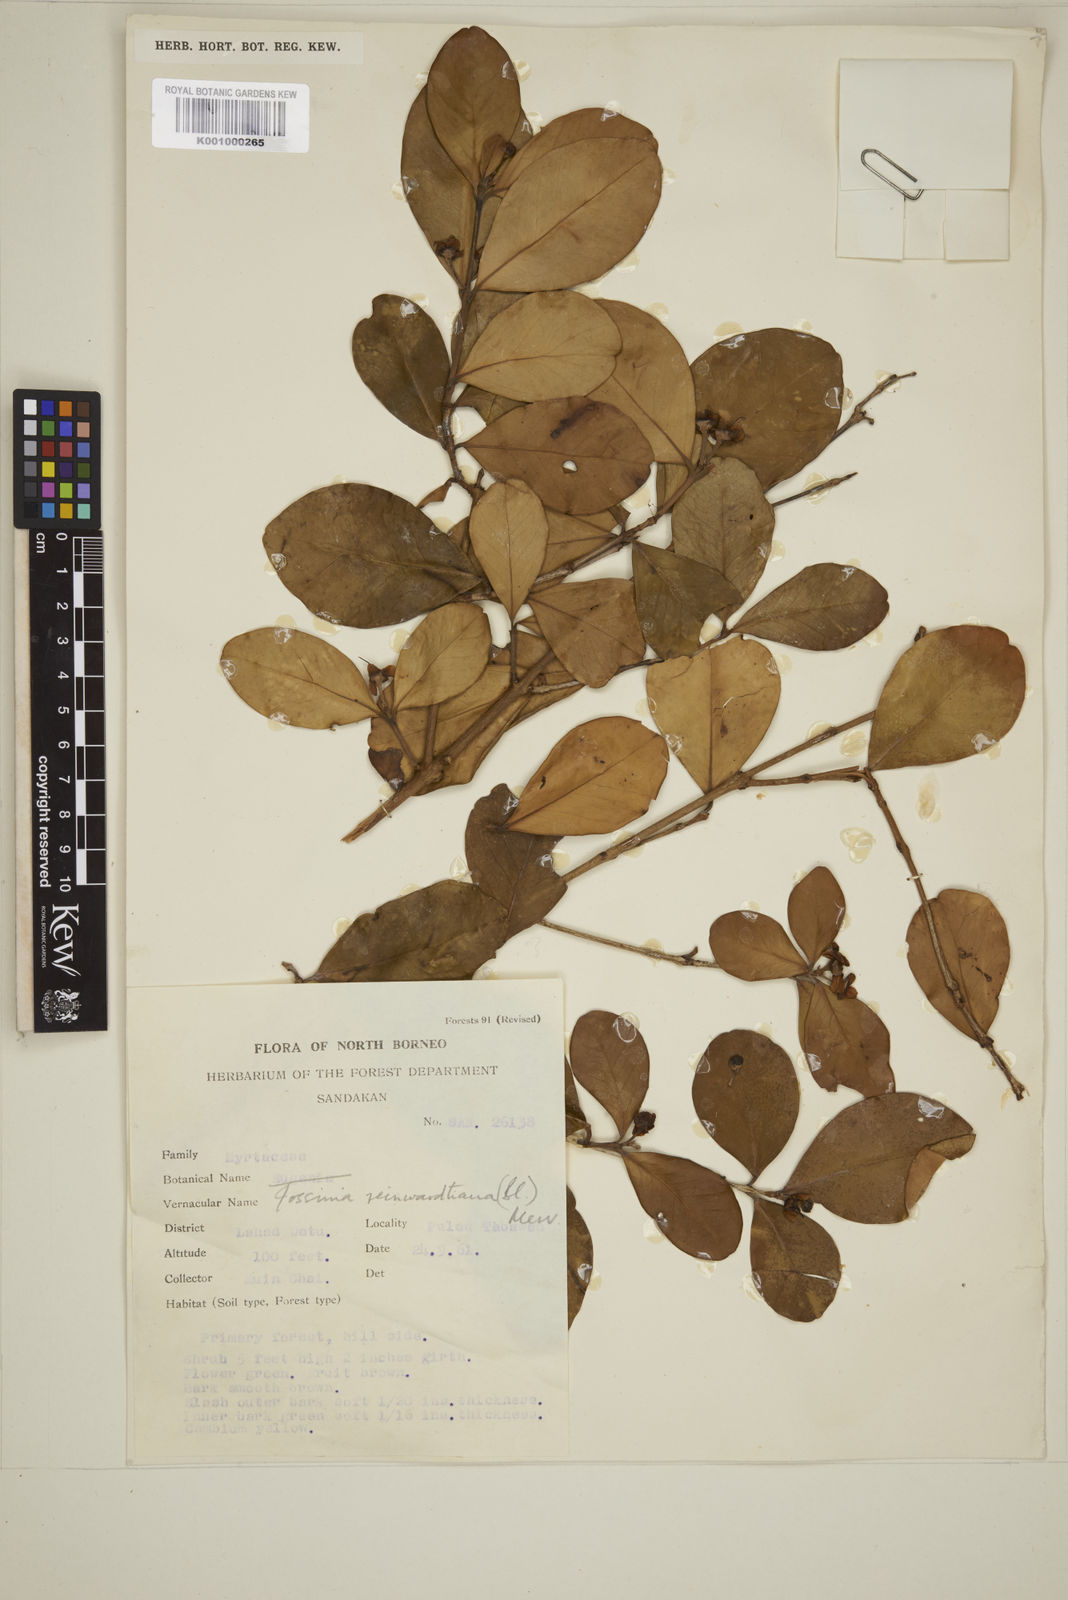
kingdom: Plantae
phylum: Tracheophyta
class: Magnoliopsida
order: Myrtales
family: Myrtaceae
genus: Eugenia
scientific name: Eugenia reinwardtiana
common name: Cedar bay-cherry
